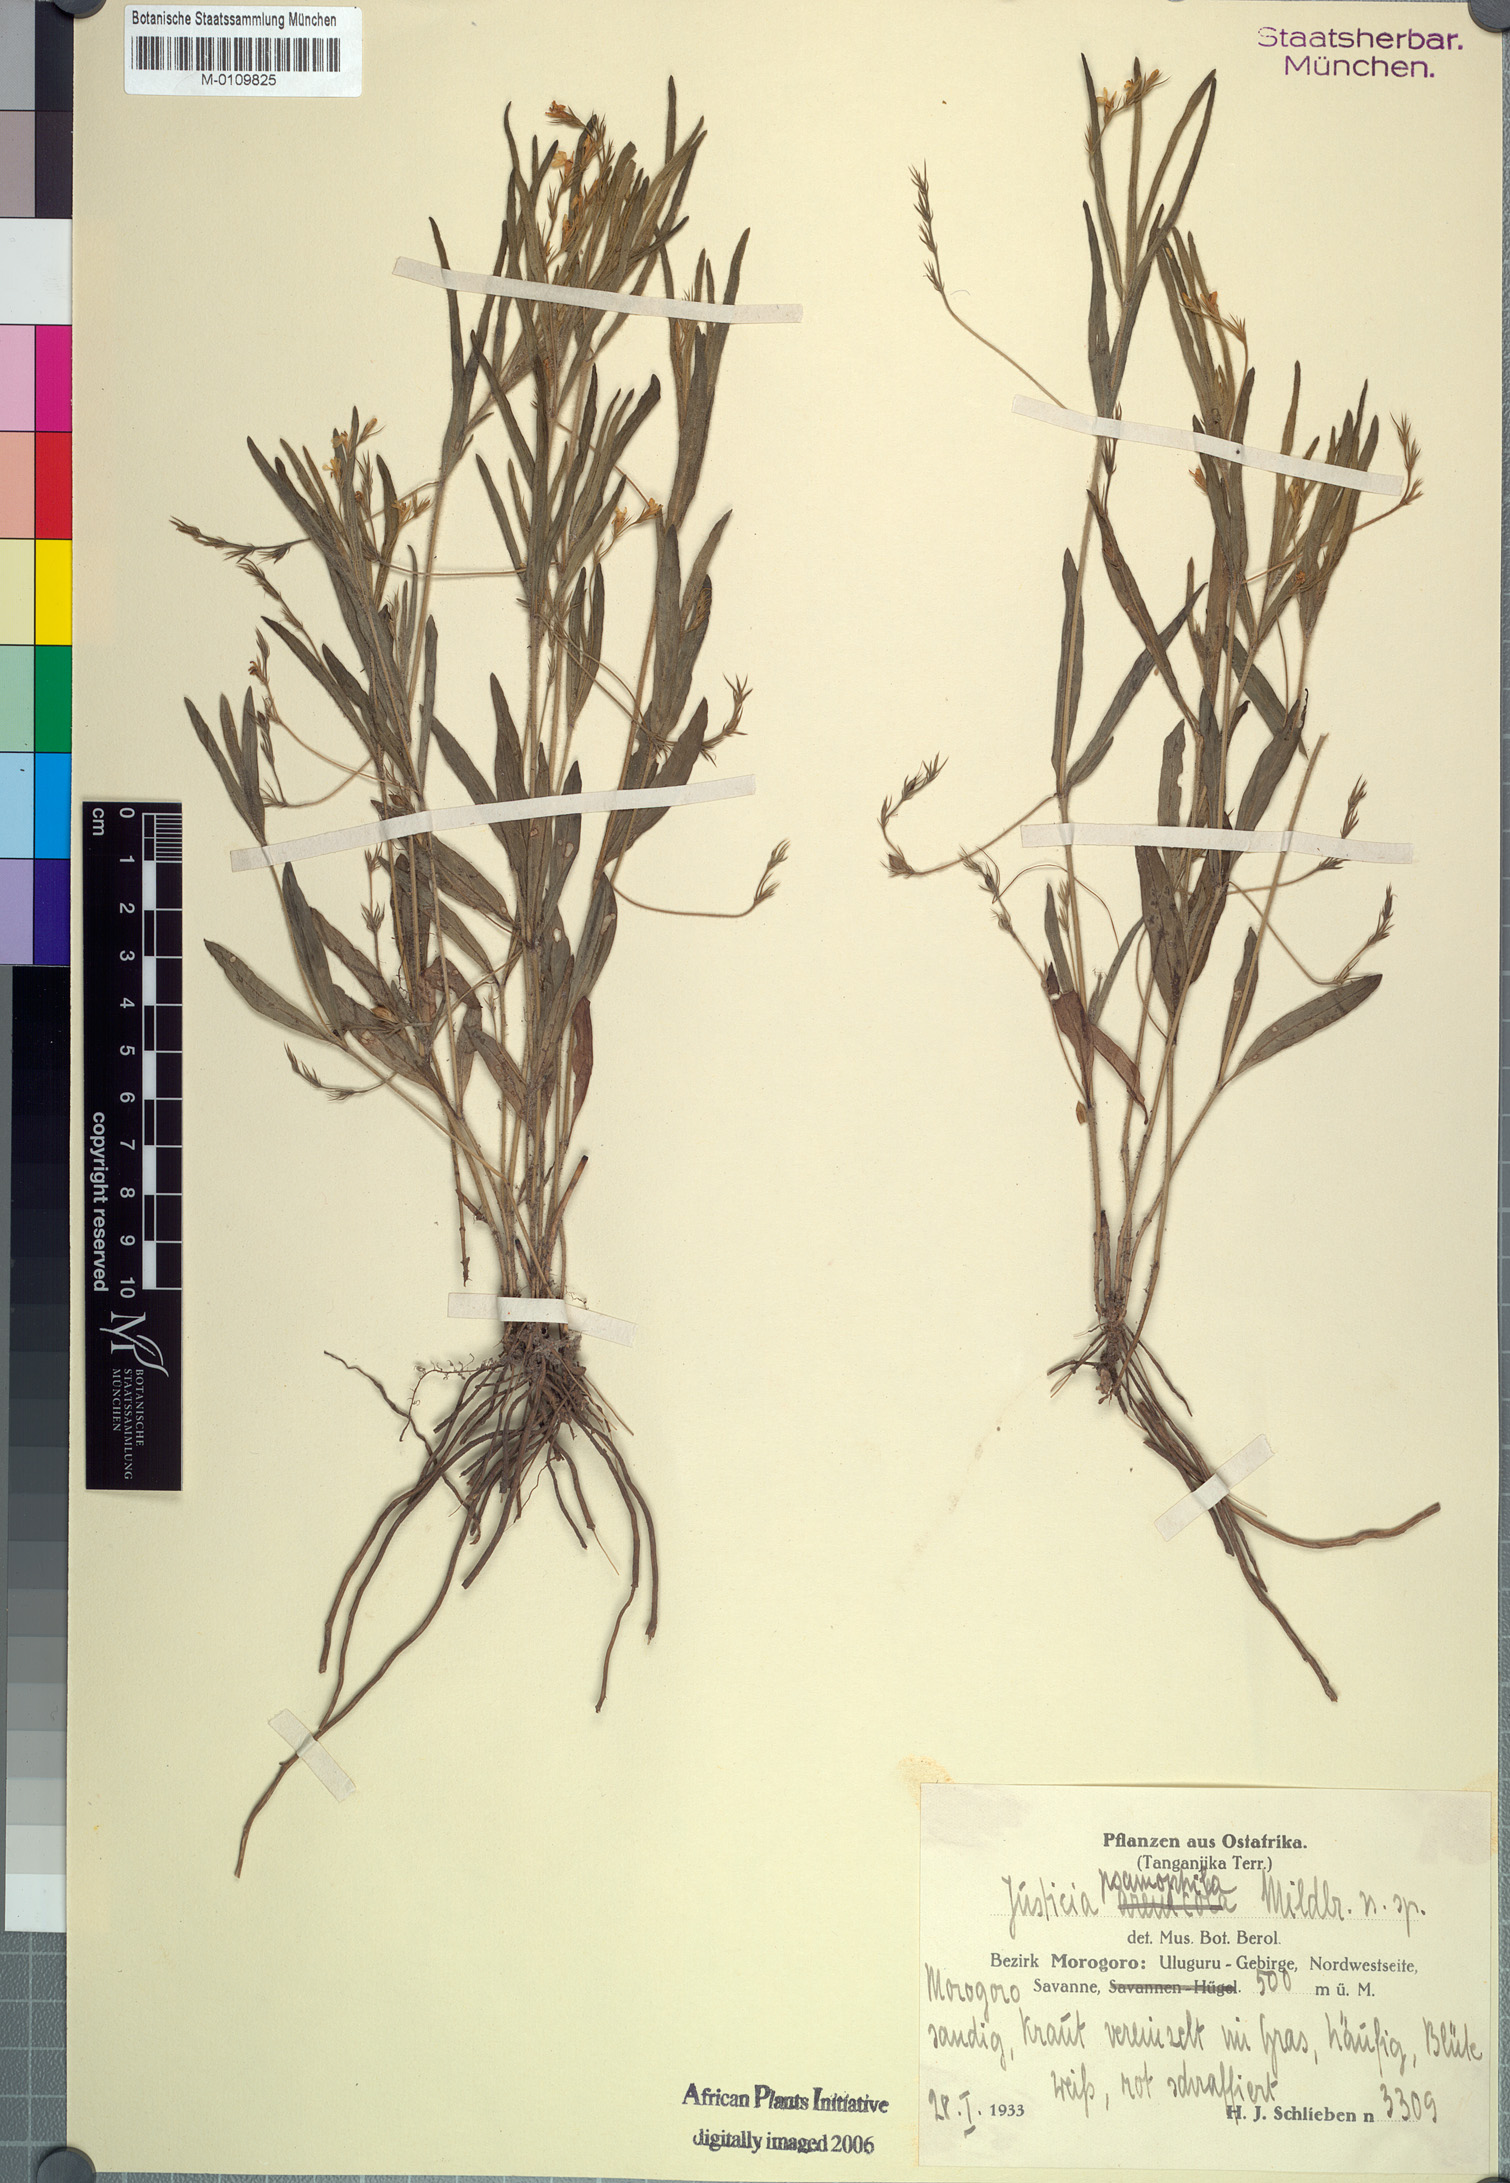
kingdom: Plantae
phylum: Tracheophyta
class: Magnoliopsida
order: Lamiales
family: Acanthaceae
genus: Justicia
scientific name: Justicia anagalloides
